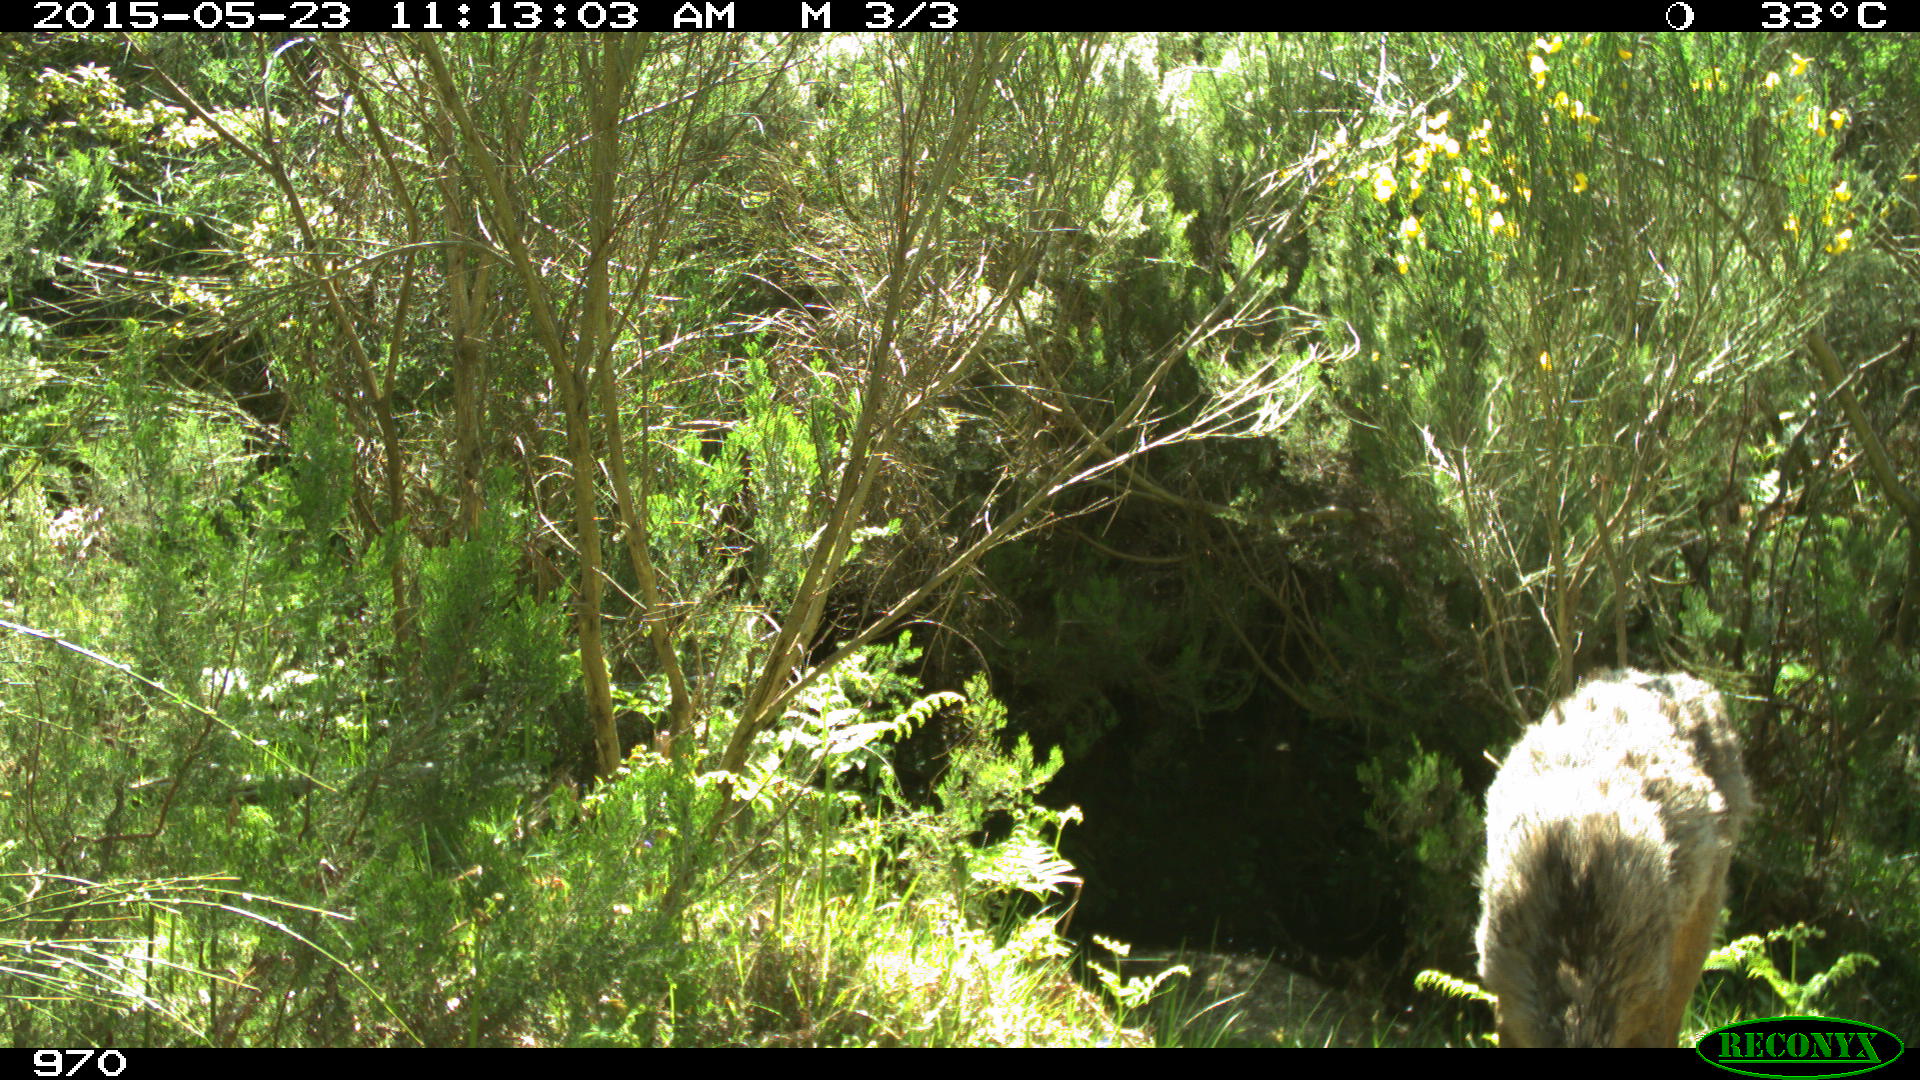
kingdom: Animalia
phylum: Chordata
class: Mammalia
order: Artiodactyla
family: Cervidae
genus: Capreolus
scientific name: Capreolus capreolus
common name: Western roe deer
